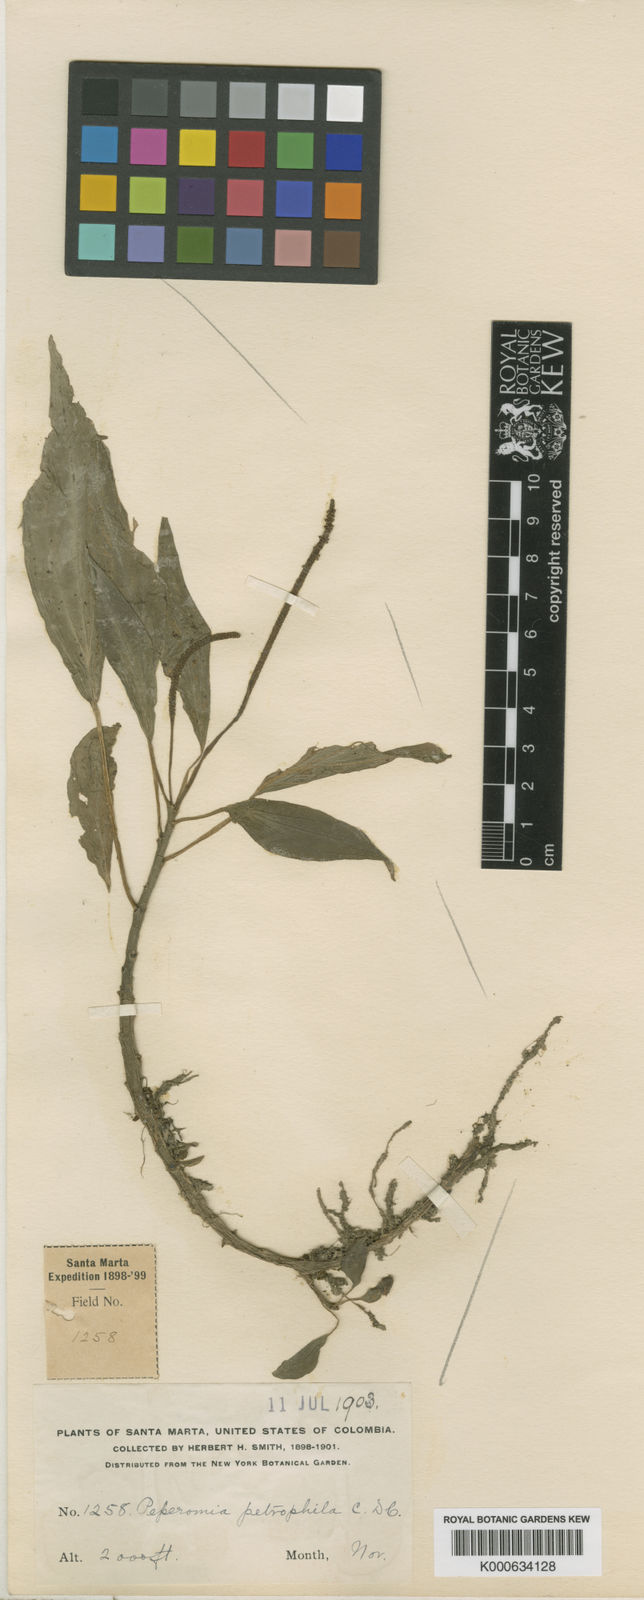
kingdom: Plantae
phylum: Tracheophyta
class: Magnoliopsida
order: Piperales
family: Piperaceae
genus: Peperomia
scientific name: Peperomia petrophila
